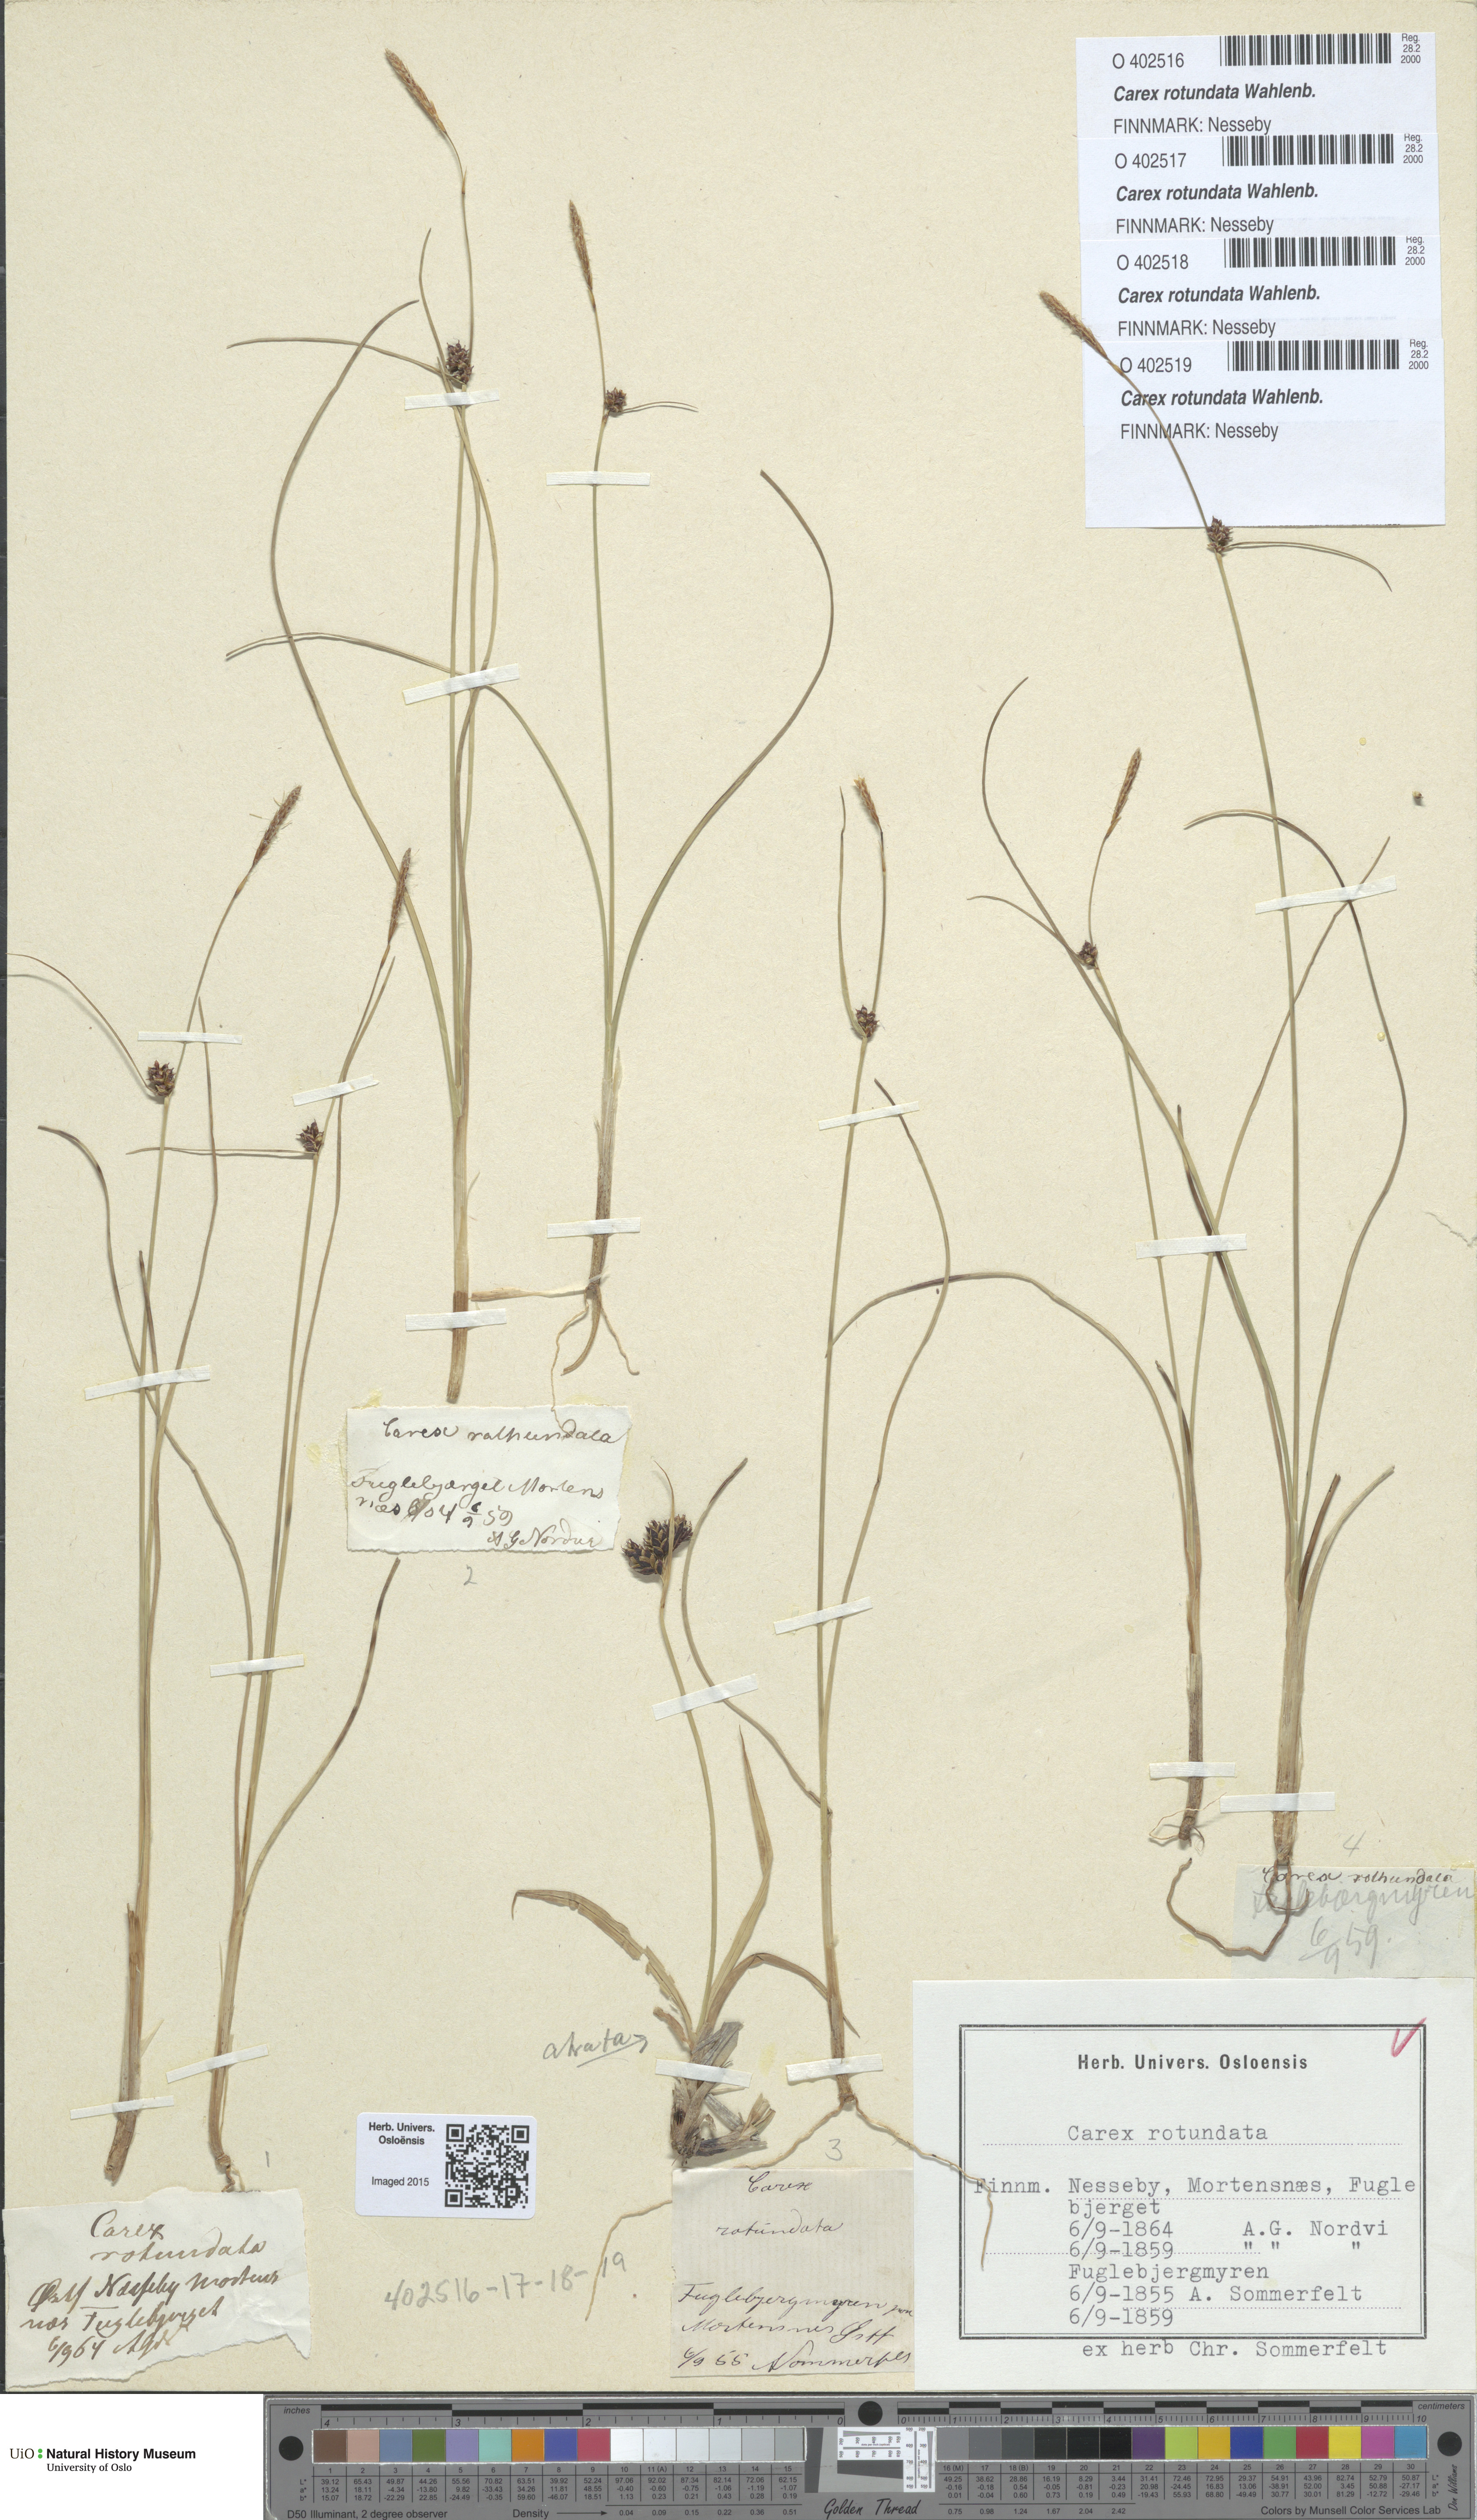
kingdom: Plantae
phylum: Tracheophyta
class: Liliopsida
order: Poales
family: Cyperaceae
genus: Carex
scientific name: Carex rotundata
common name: Round-fruited sedge
